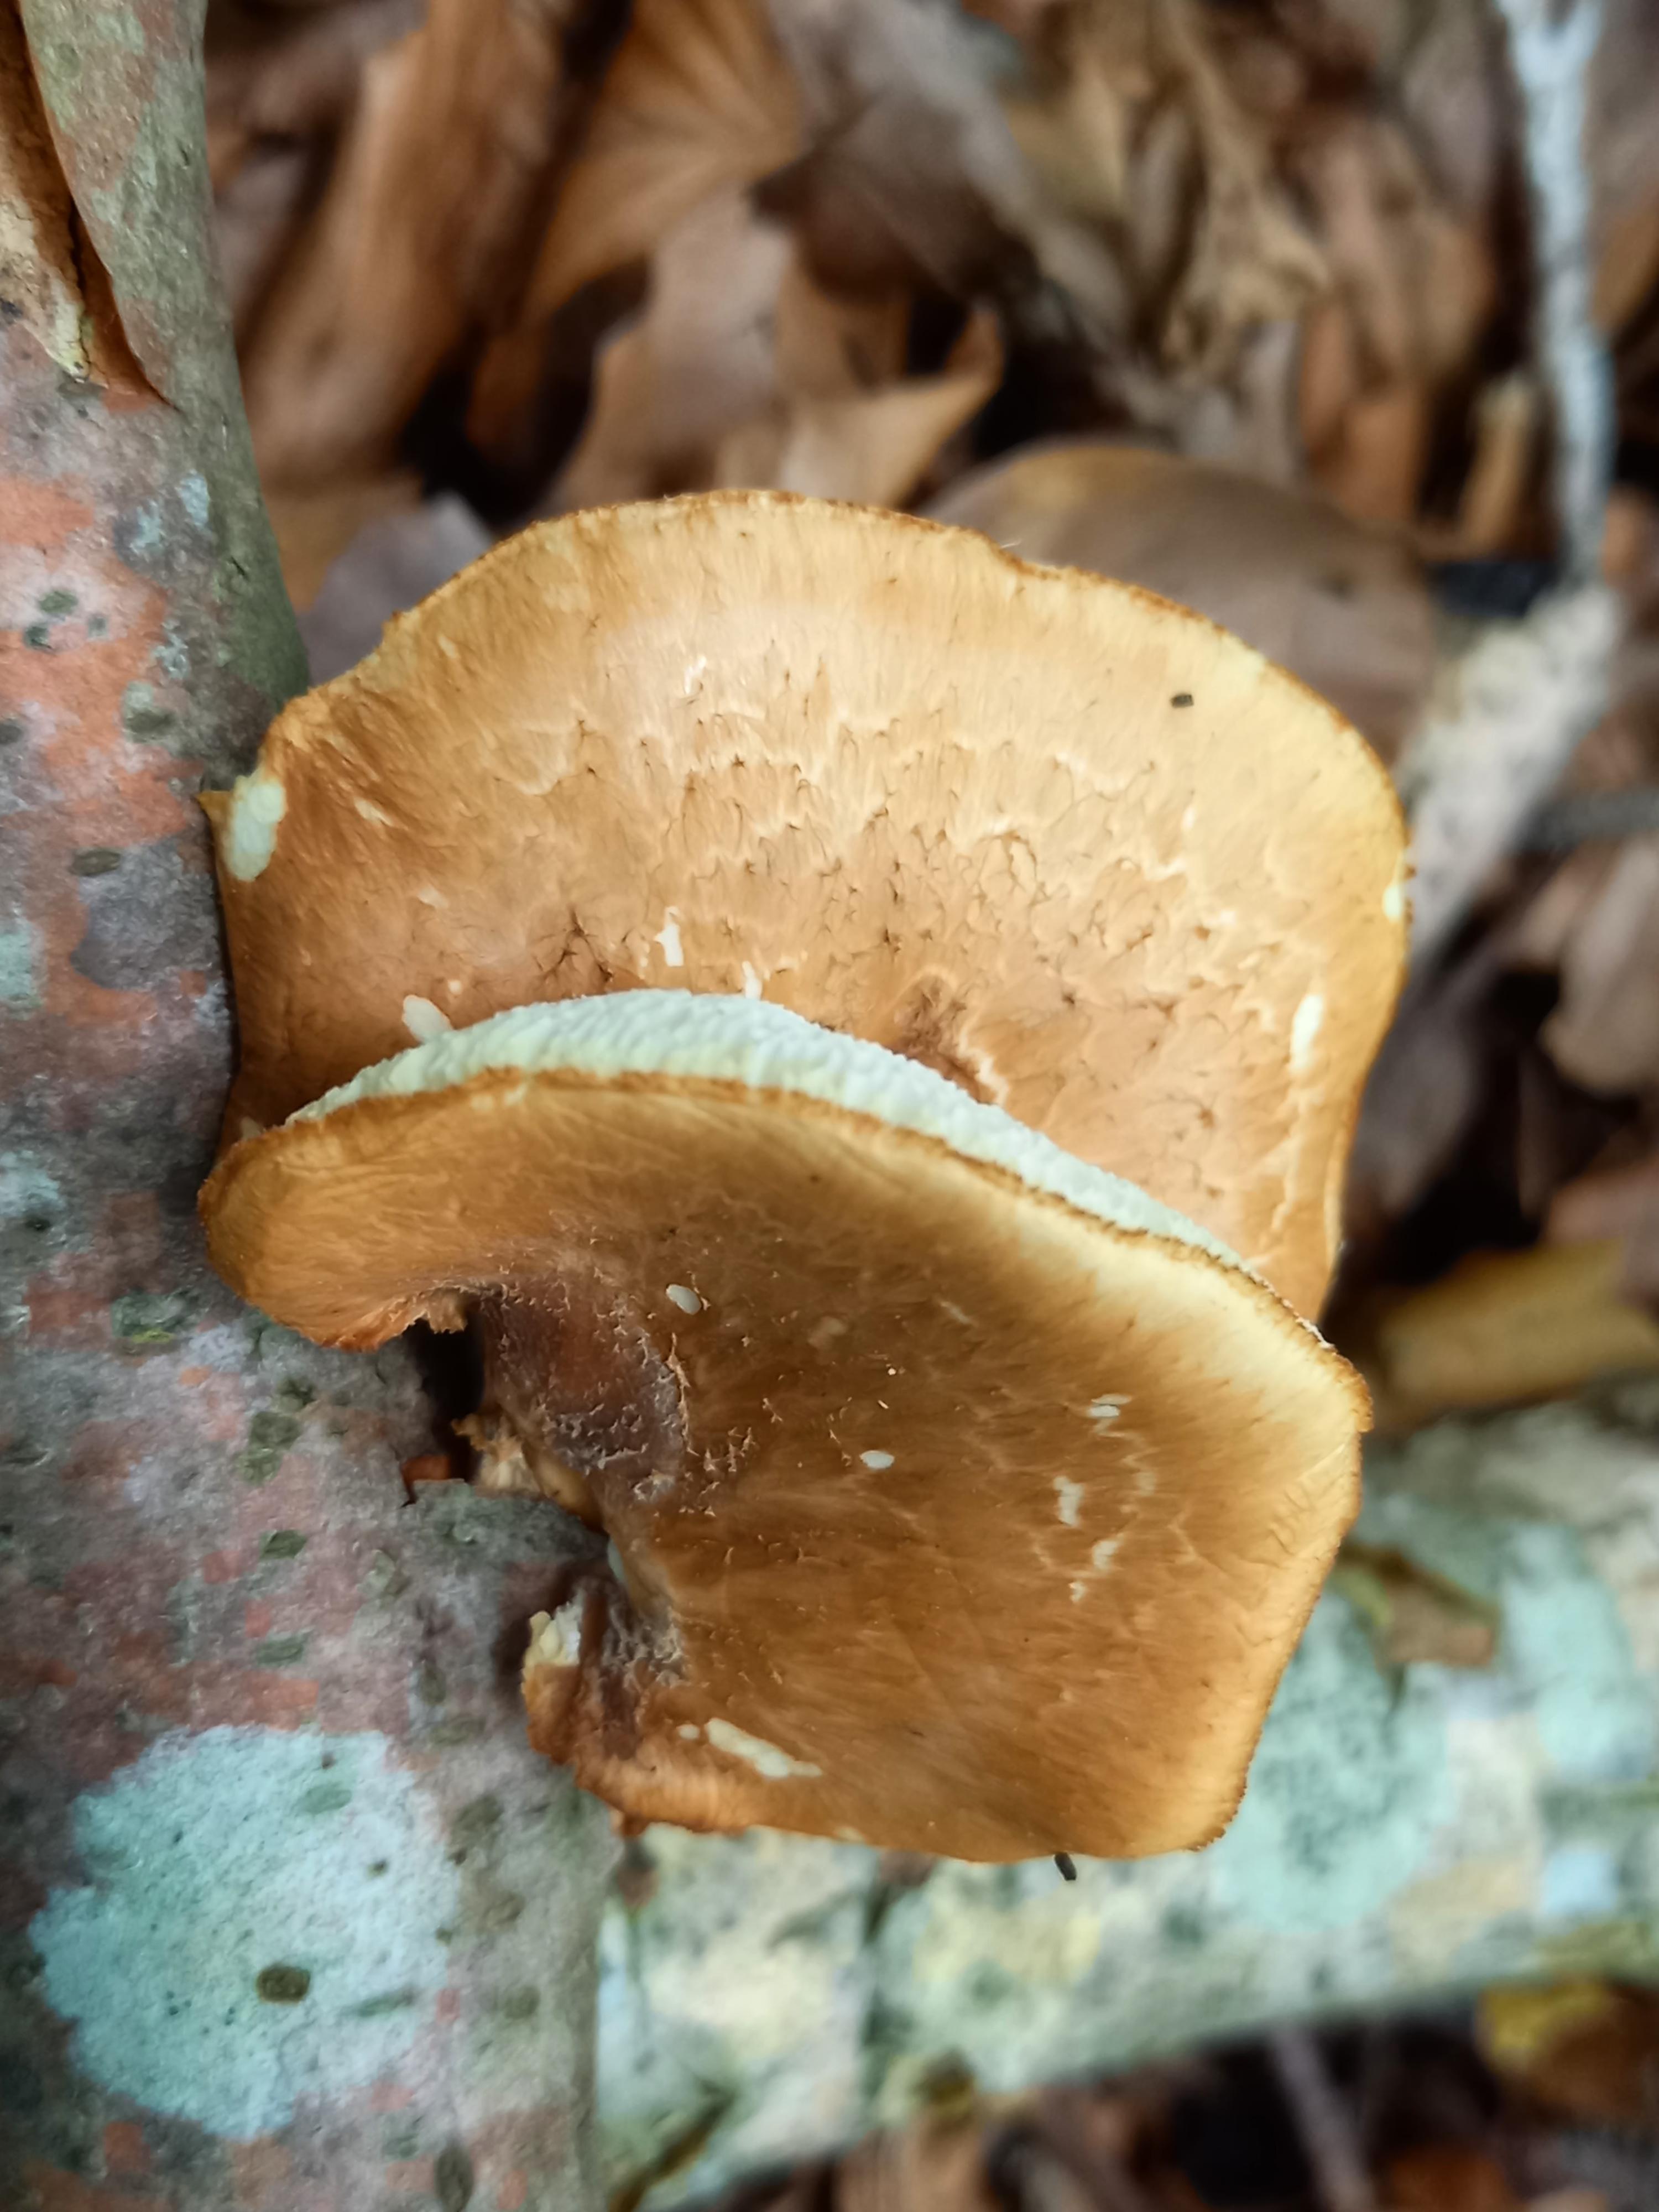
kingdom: Fungi
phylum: Basidiomycota
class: Agaricomycetes
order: Polyporales
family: Polyporaceae
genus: Polyporus
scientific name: Polyporus tuberaster
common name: knoldet stilkporesvamp
